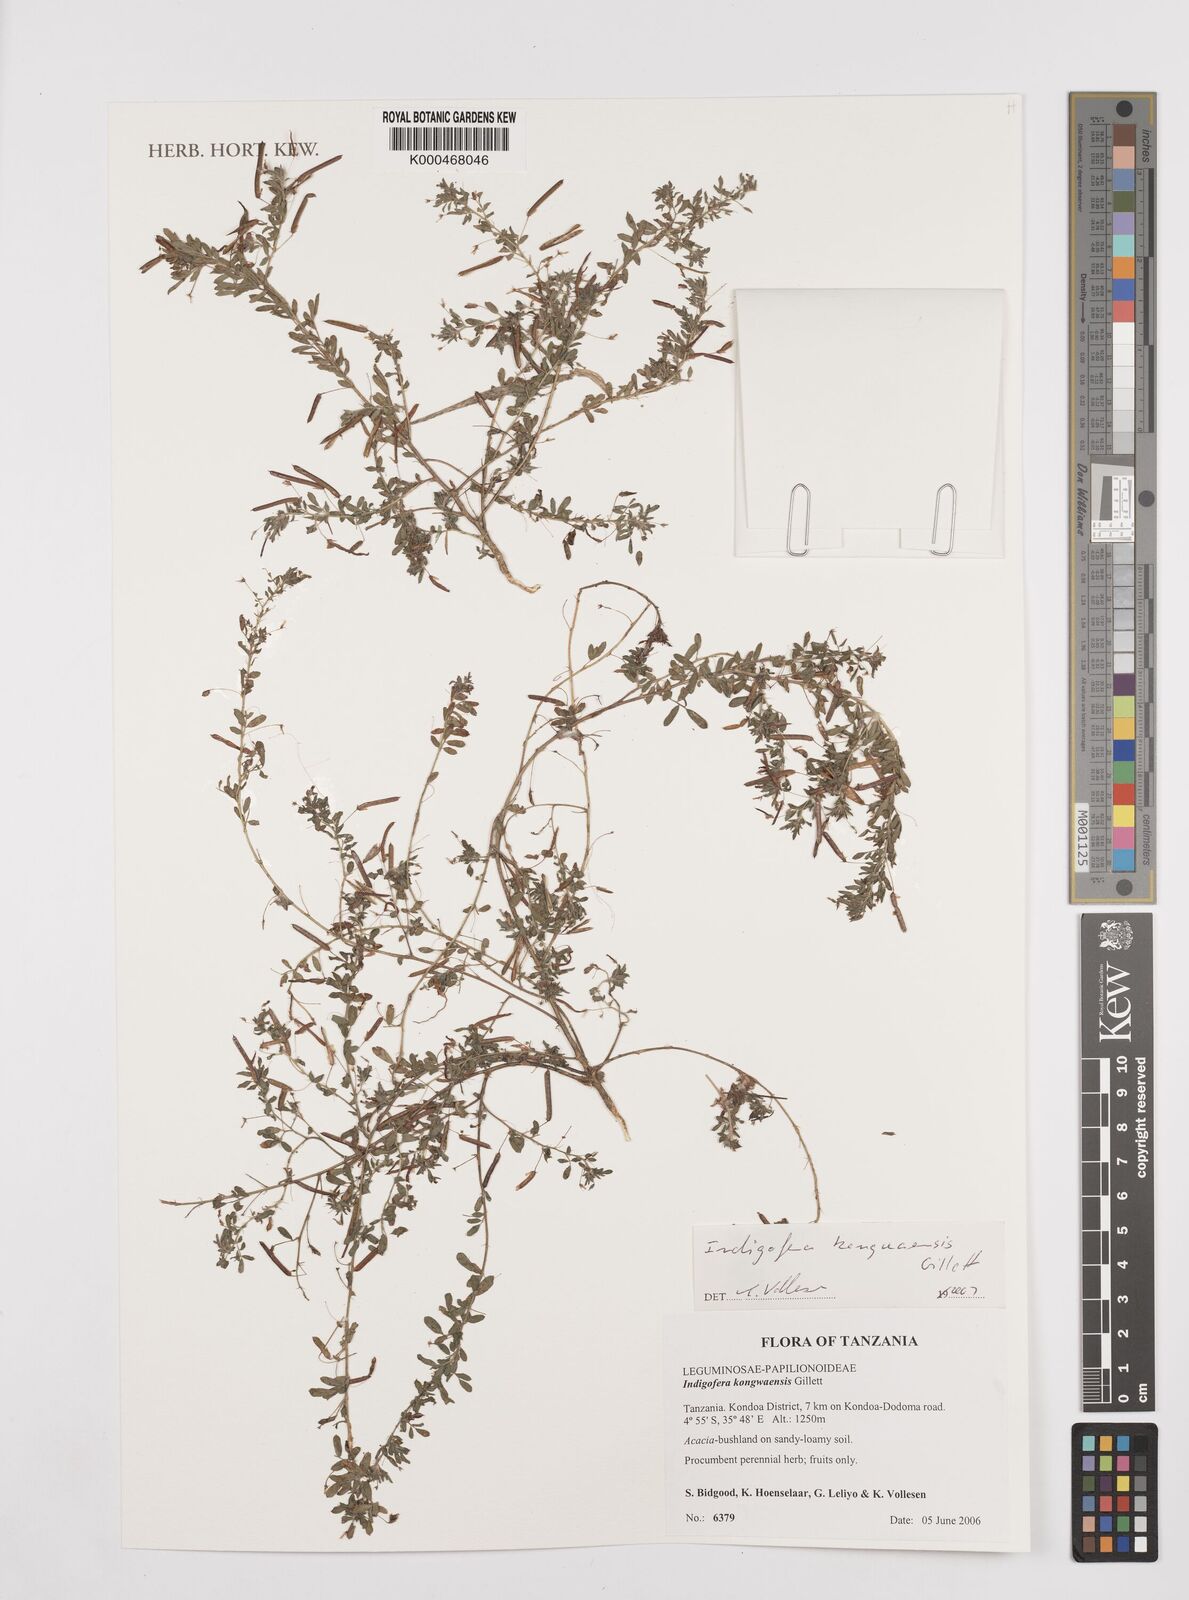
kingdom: Plantae
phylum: Tracheophyta
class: Magnoliopsida
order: Fabales
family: Fabaceae
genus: Indigofera
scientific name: Indigofera kongwaensis
